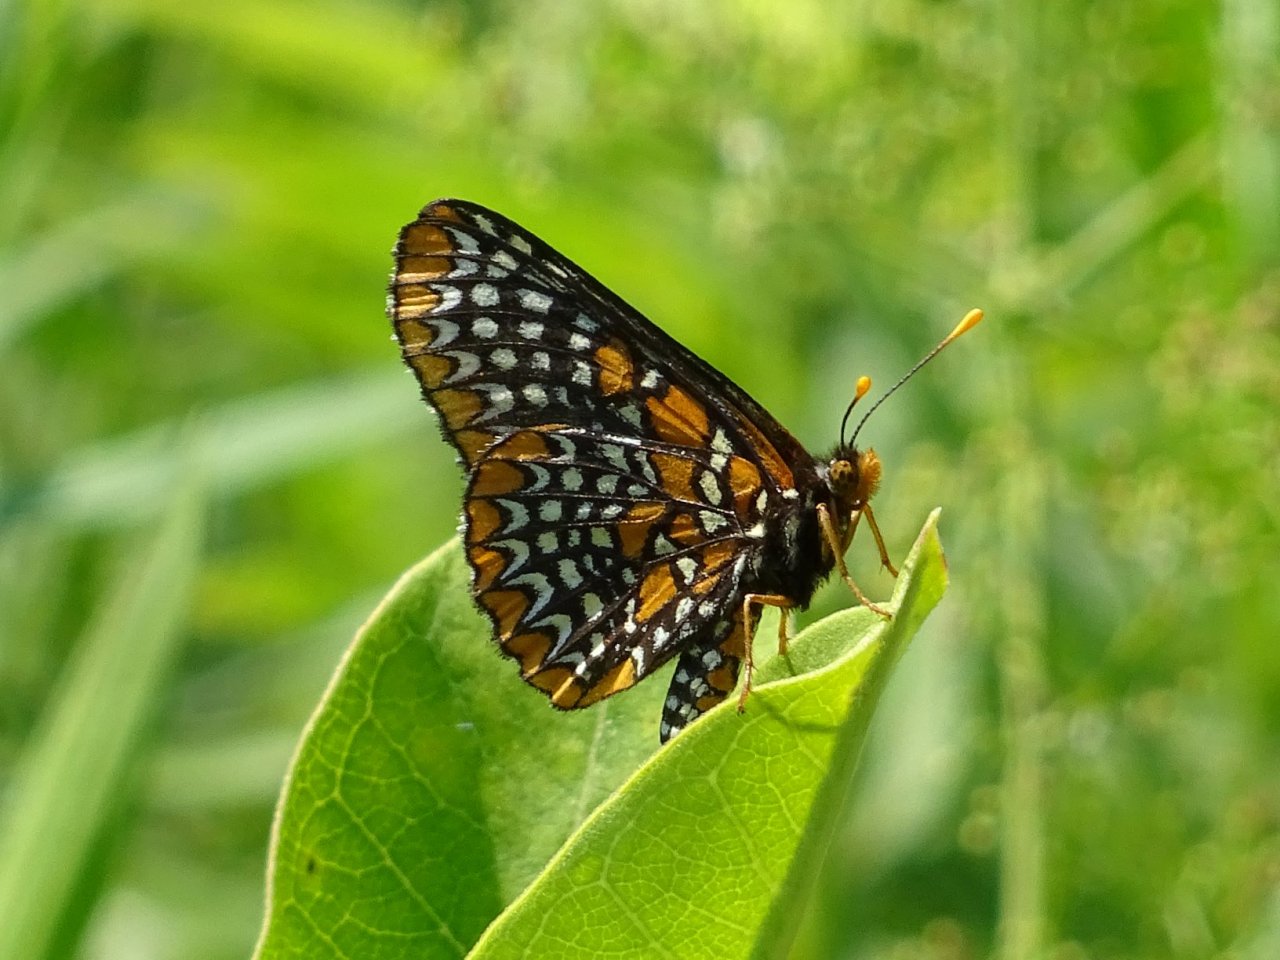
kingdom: Animalia
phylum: Arthropoda
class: Insecta
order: Lepidoptera
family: Nymphalidae
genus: Euphydryas
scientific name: Euphydryas phaeton
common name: Baltimore Checkerspot
